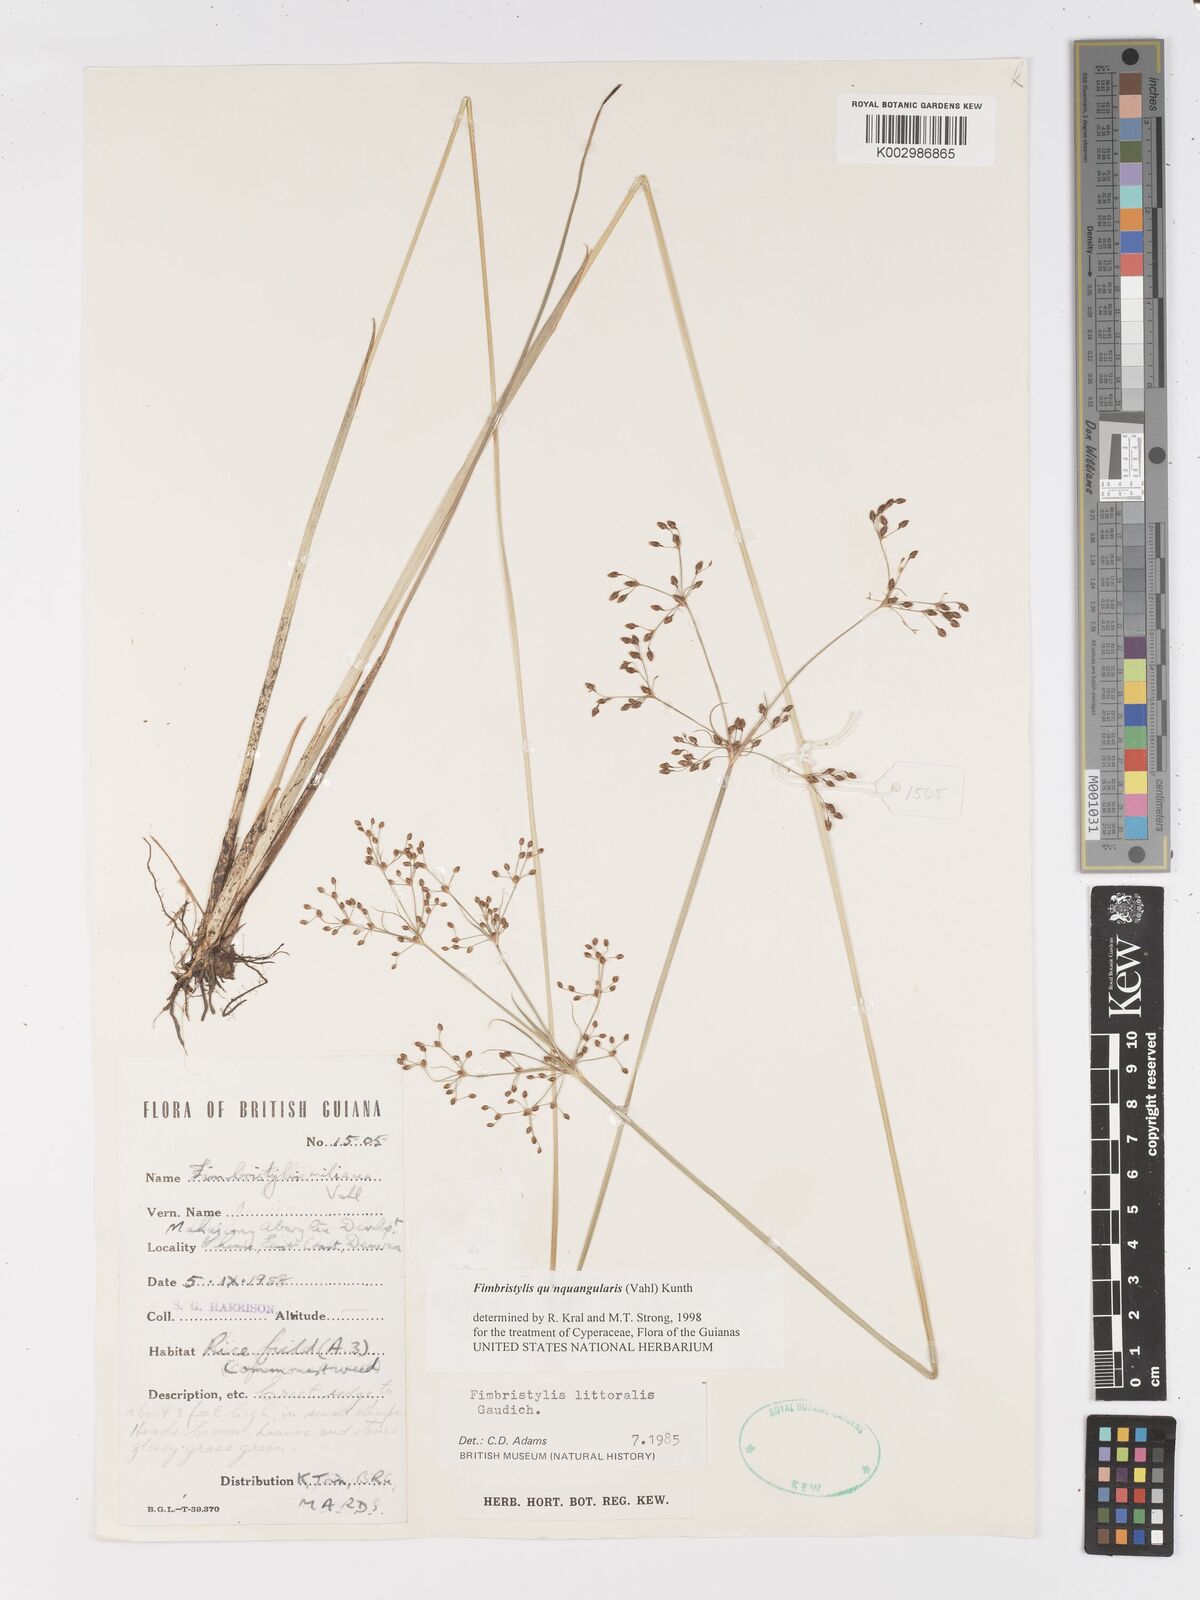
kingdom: Plantae
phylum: Tracheophyta
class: Liliopsida
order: Poales
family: Cyperaceae
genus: Fimbristylis
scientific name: Fimbristylis quinquangularis
